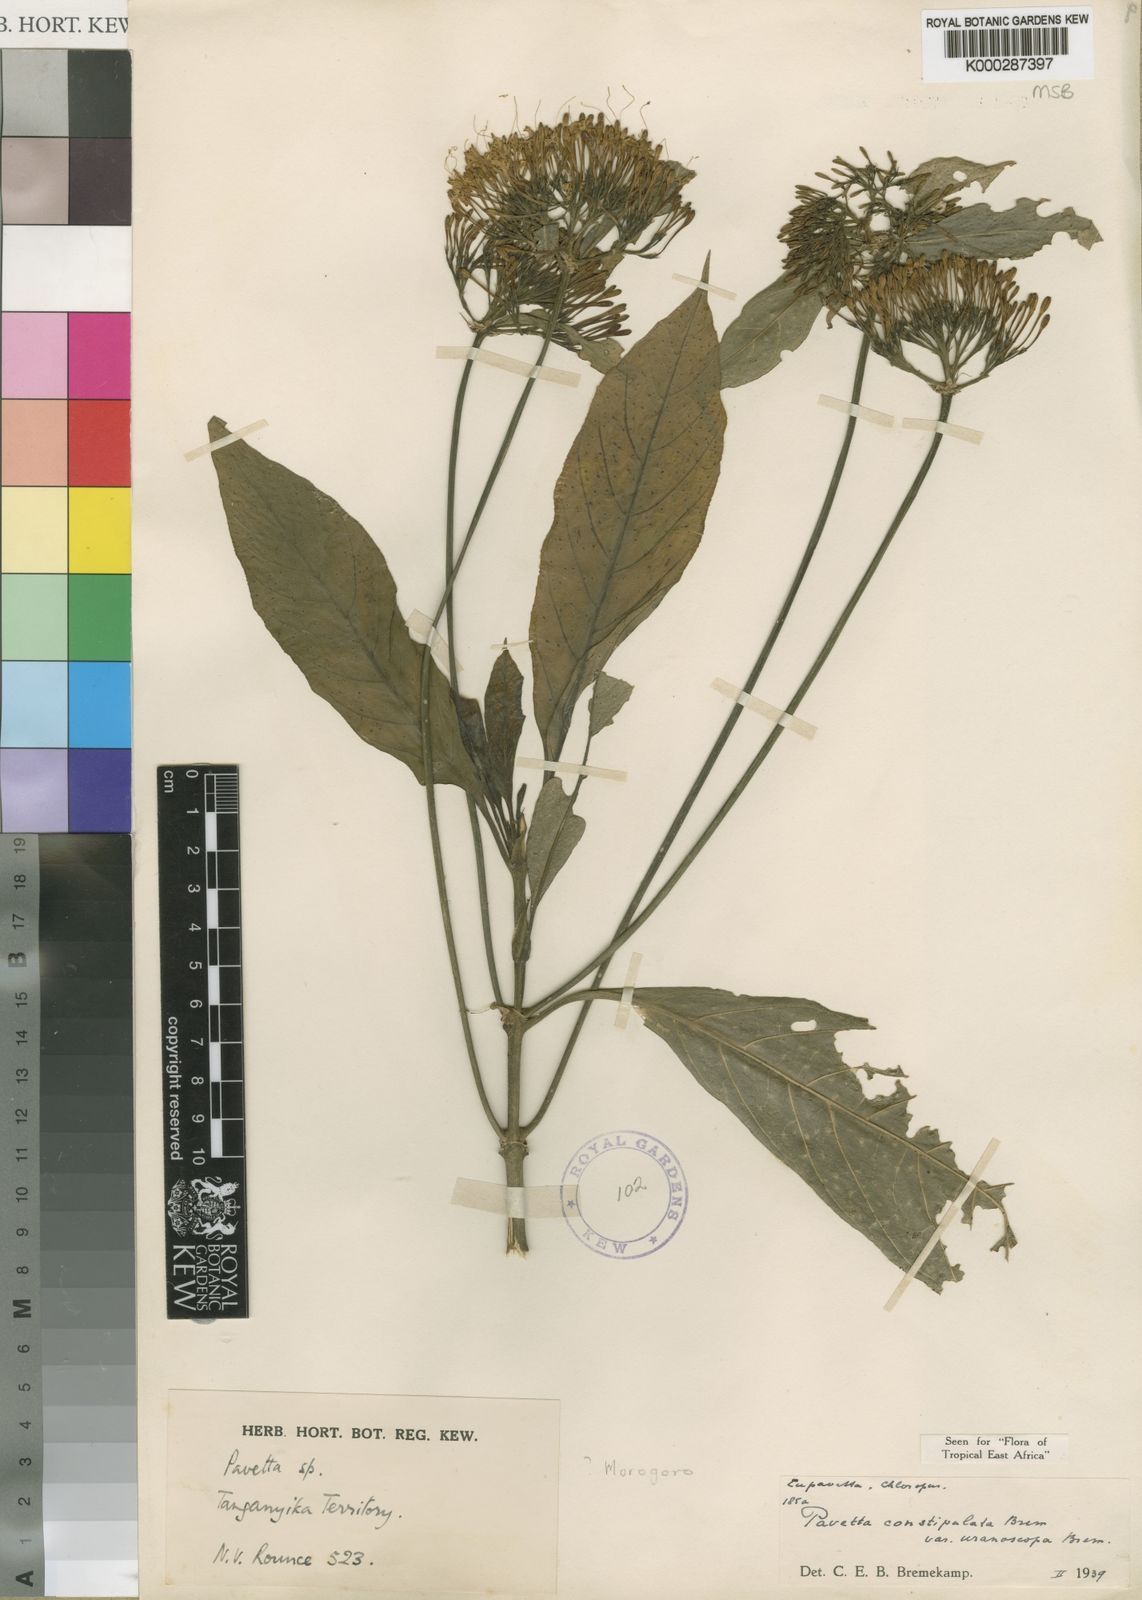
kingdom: Plantae
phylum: Tracheophyta
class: Magnoliopsida
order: Gentianales
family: Rubiaceae
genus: Pavetta
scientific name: Pavetta constipulata
